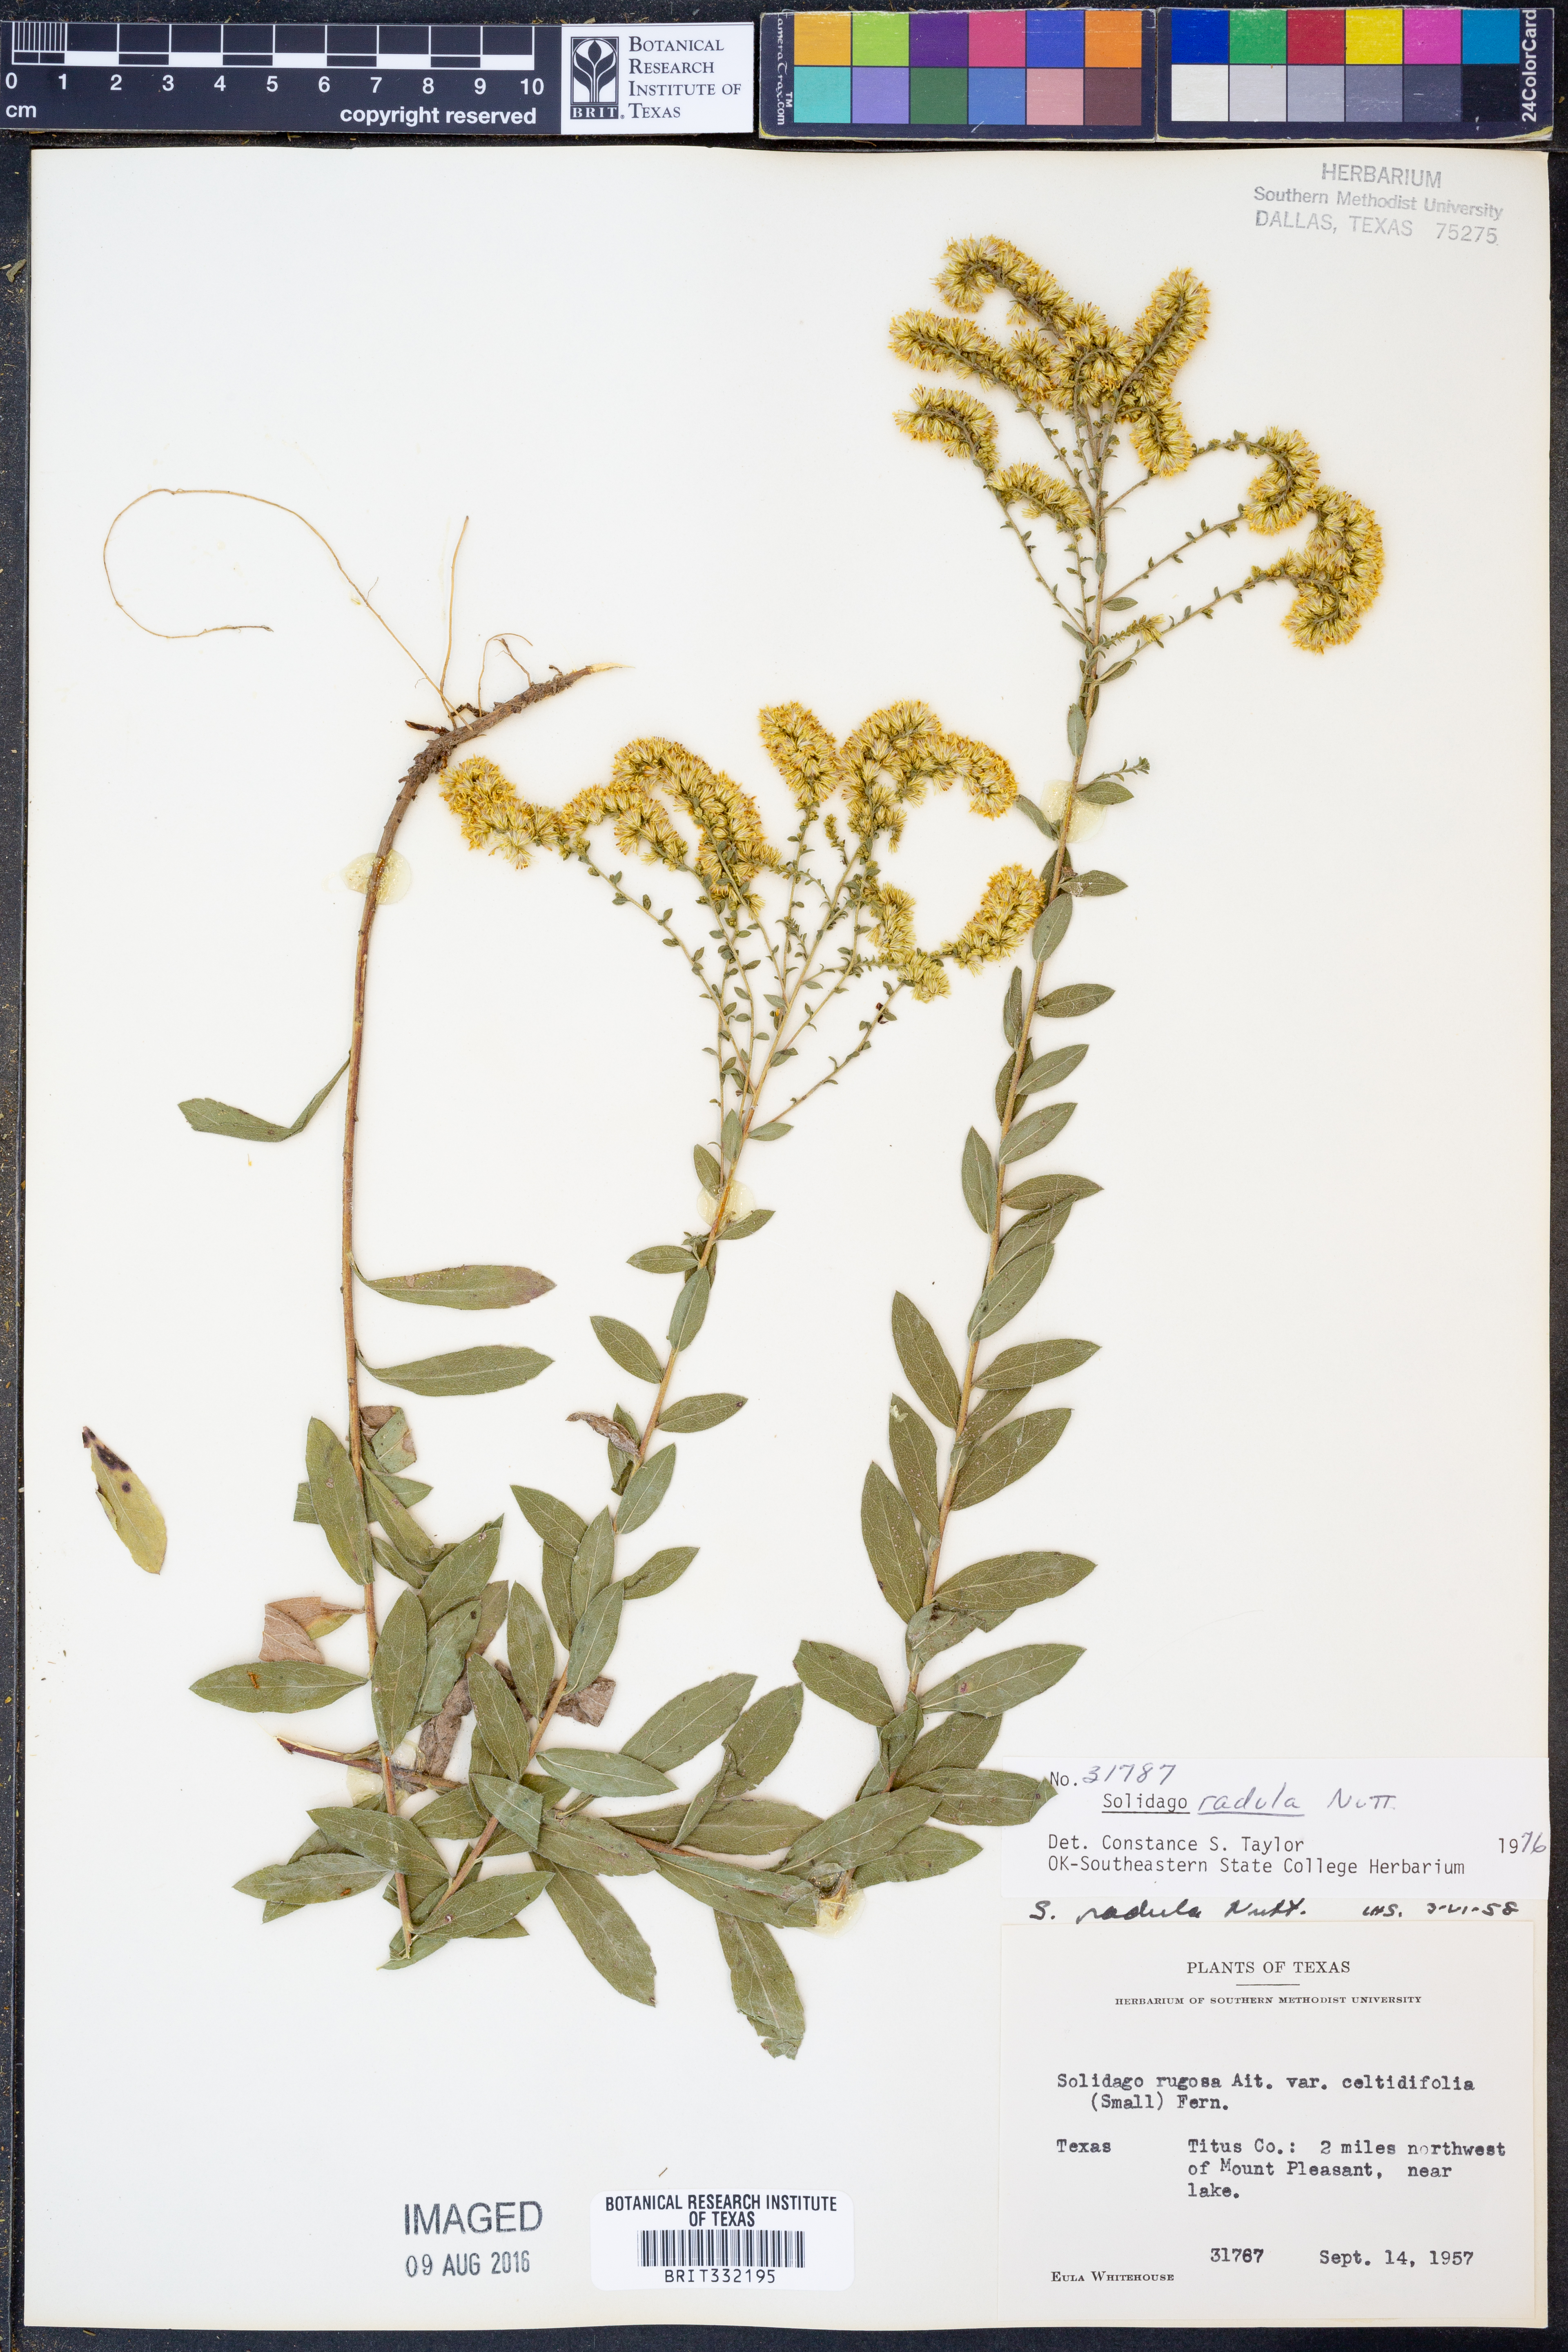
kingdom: Plantae
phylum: Tracheophyta
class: Magnoliopsida
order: Asterales
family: Asteraceae
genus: Solidago
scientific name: Solidago radula
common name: Western rough goldenrod
